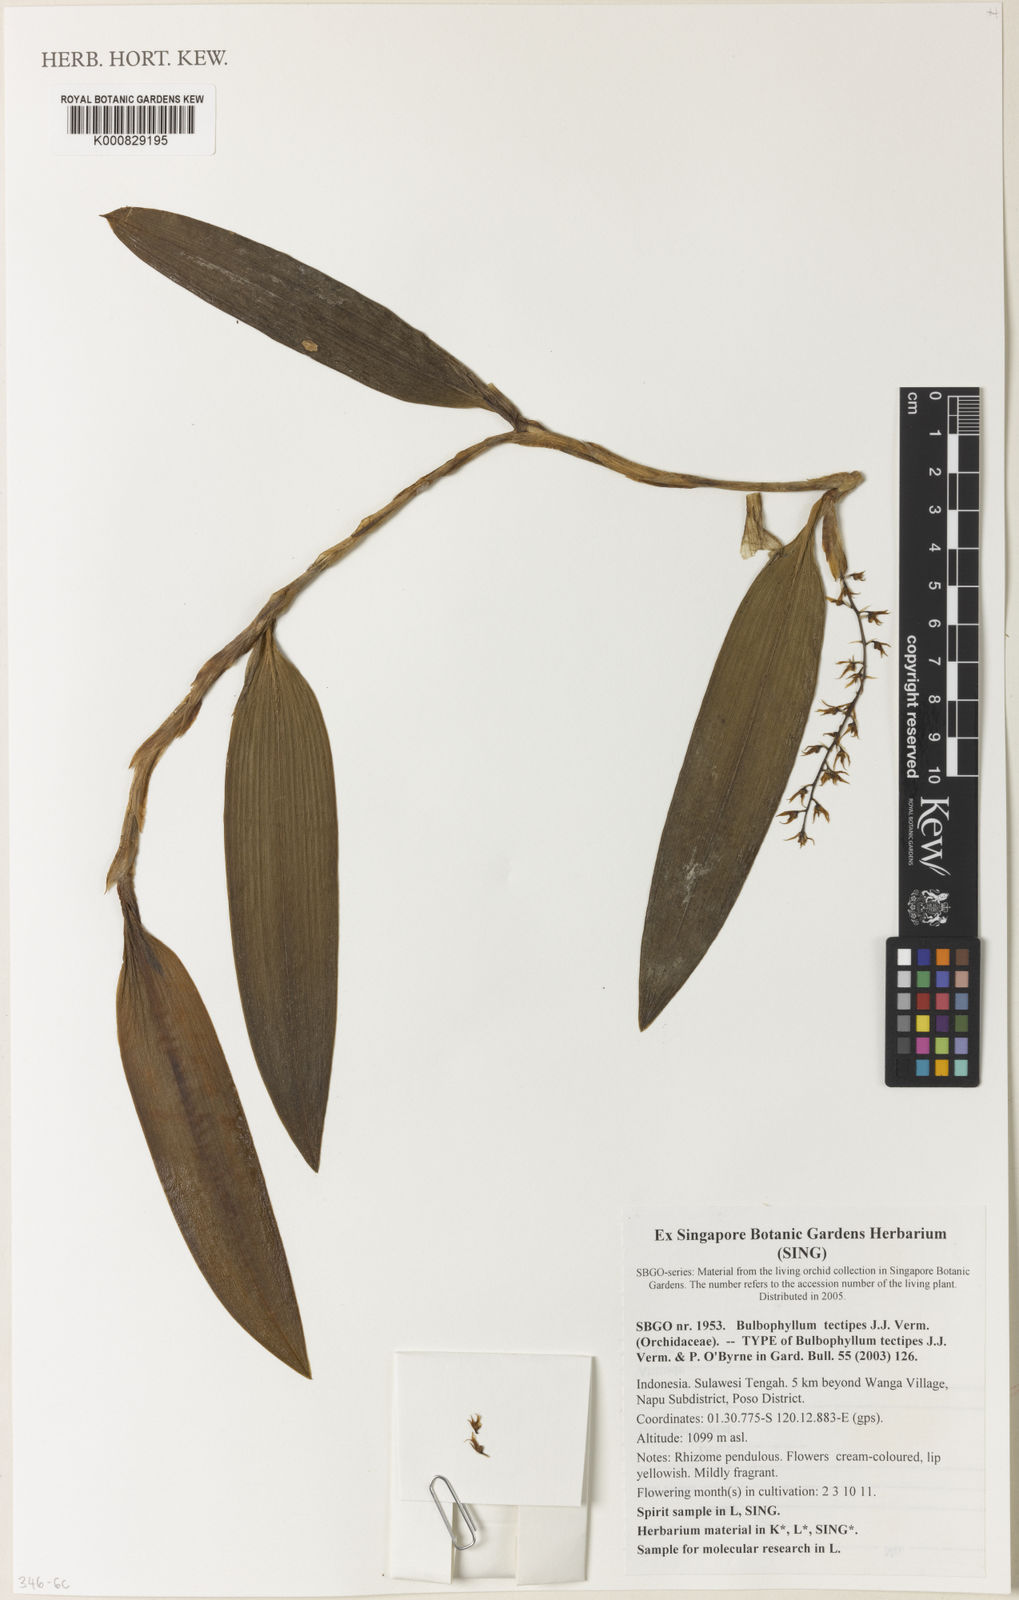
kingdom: Plantae
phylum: Tracheophyta
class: Liliopsida
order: Asparagales
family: Orchidaceae
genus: Bulbophyllum
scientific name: Bulbophyllum tectipes
